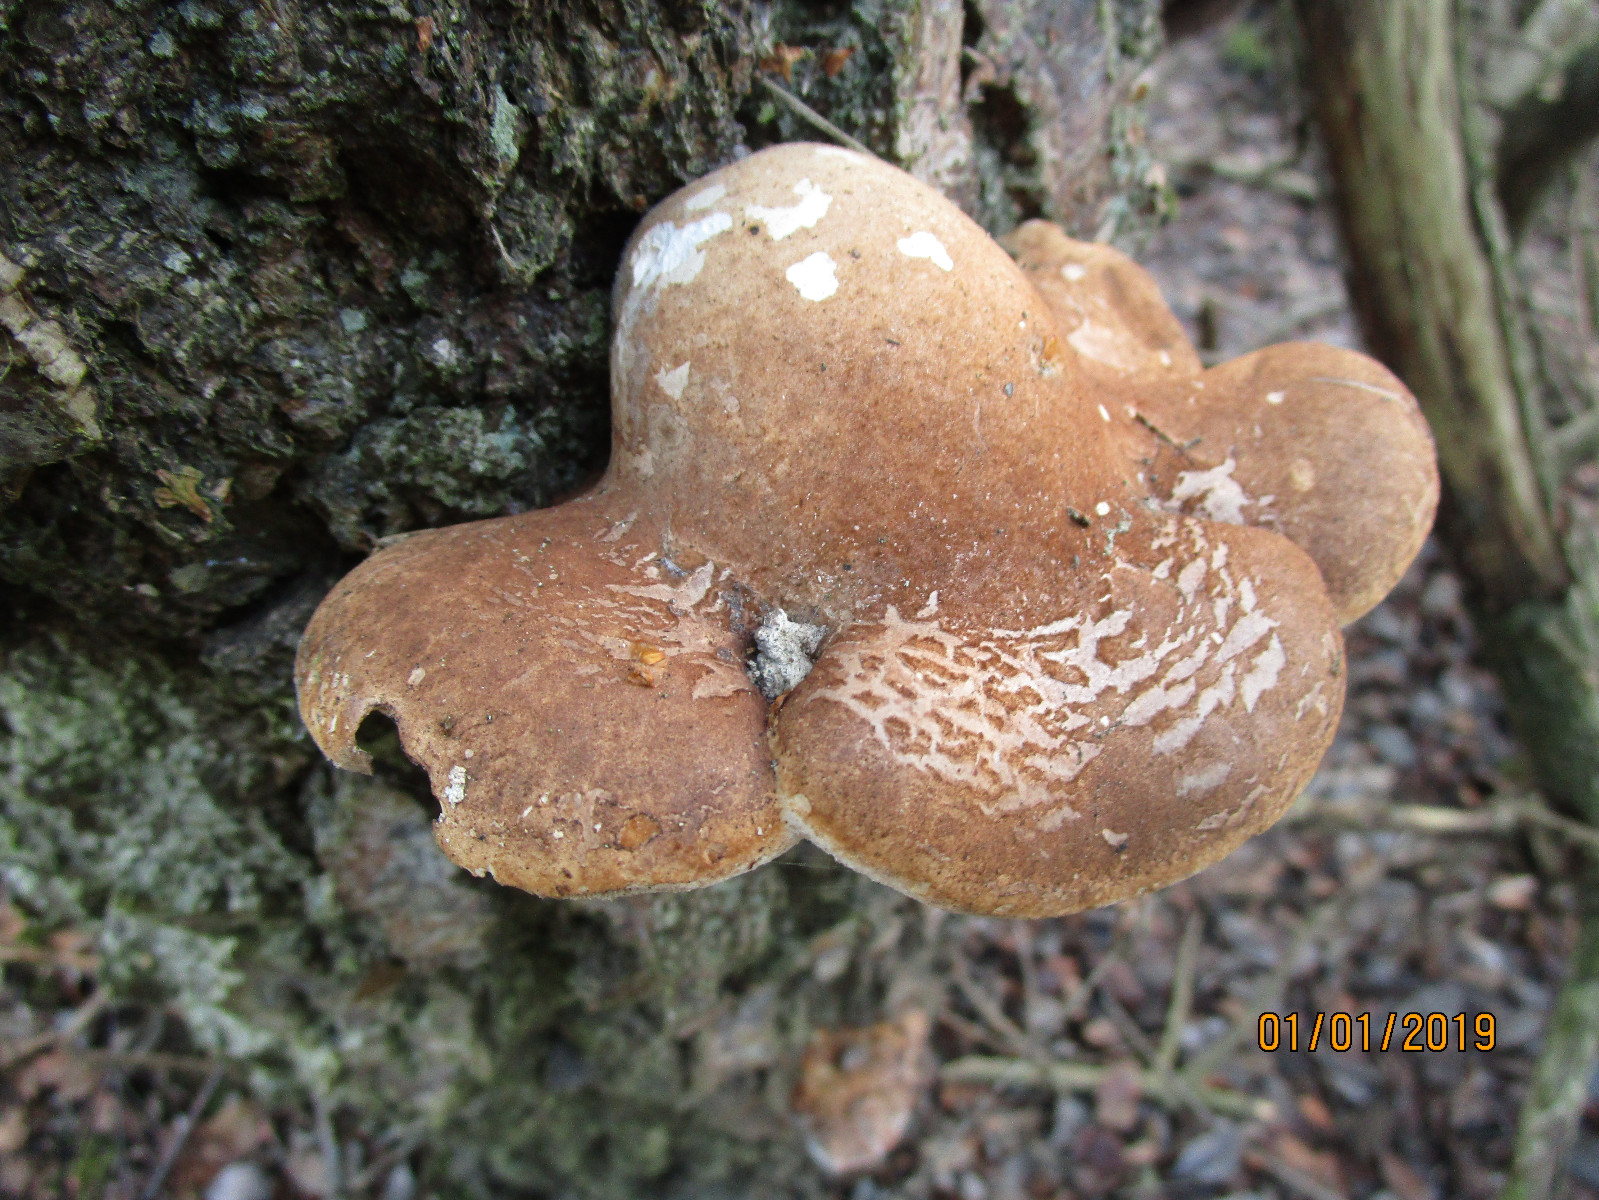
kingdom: Fungi
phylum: Basidiomycota
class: Agaricomycetes
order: Polyporales
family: Fomitopsidaceae
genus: Fomitopsis
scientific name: Fomitopsis betulina
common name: birkeporesvamp
